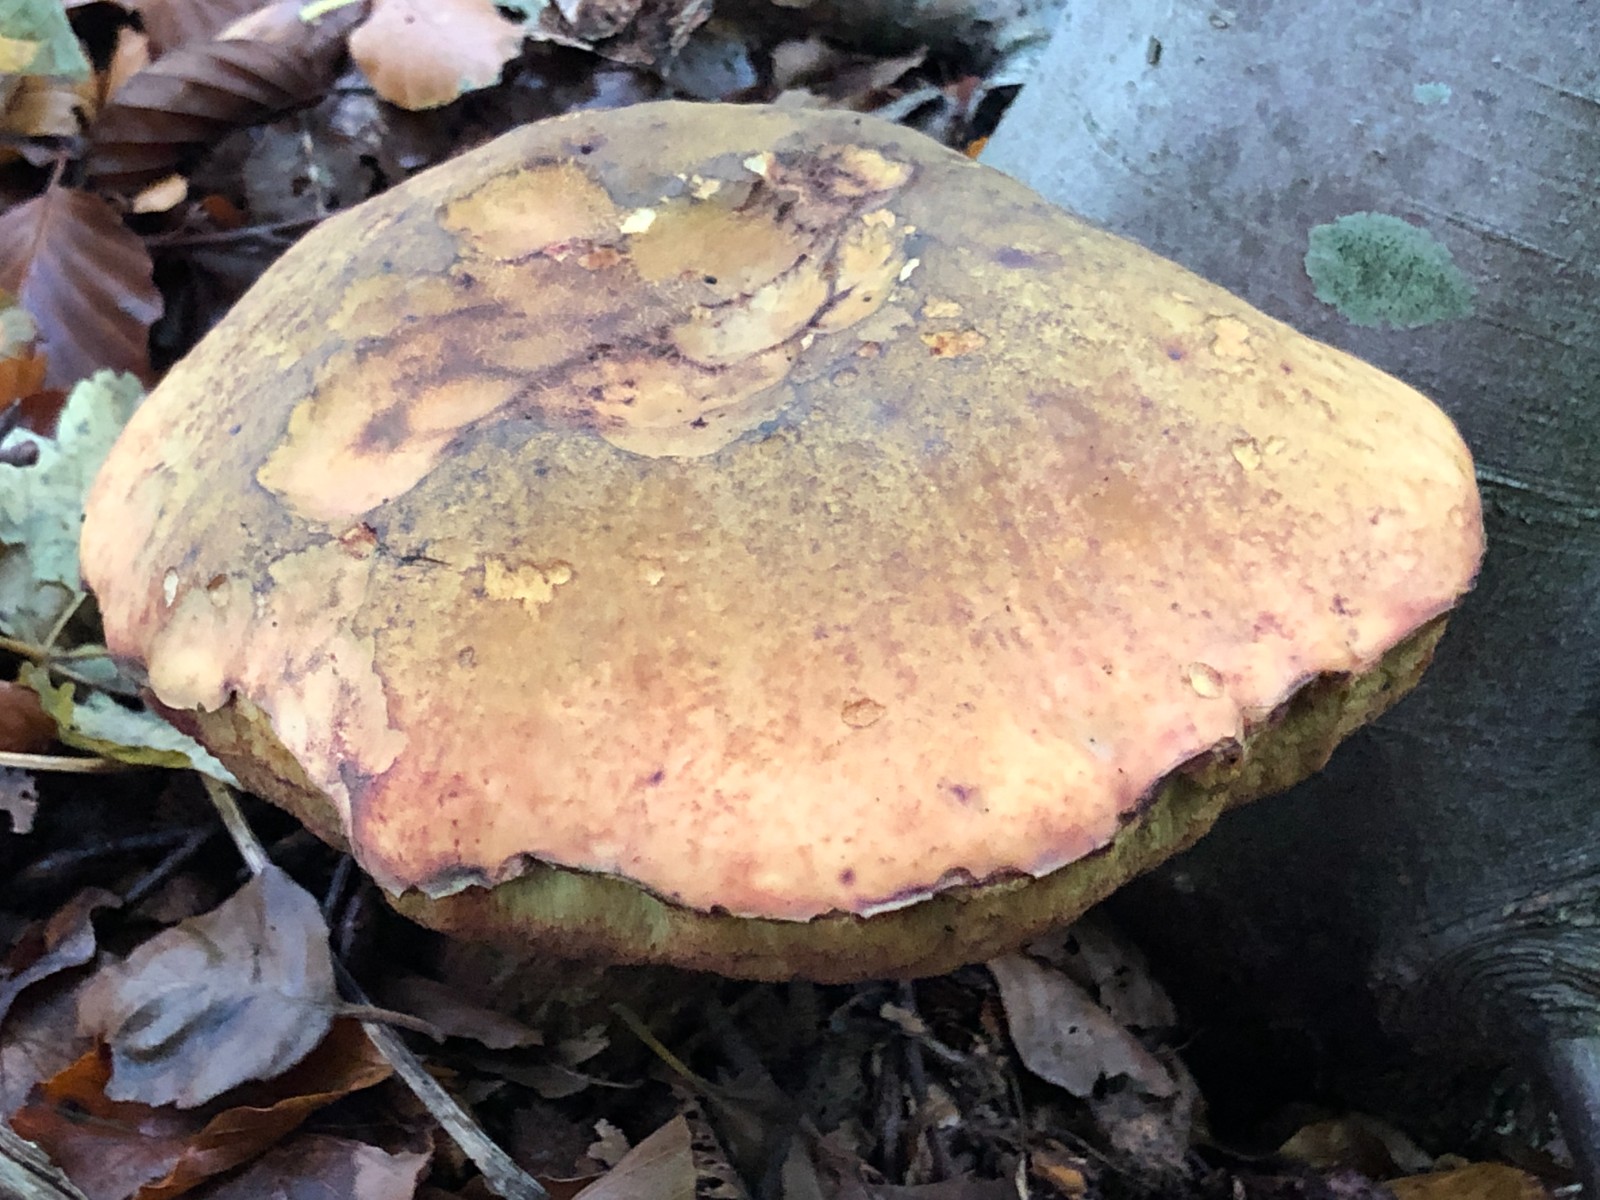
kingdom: Fungi
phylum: Basidiomycota
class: Agaricomycetes
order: Boletales
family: Boletaceae
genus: Suillellus
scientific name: Suillellus luridus
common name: netstokket indigorørhat
